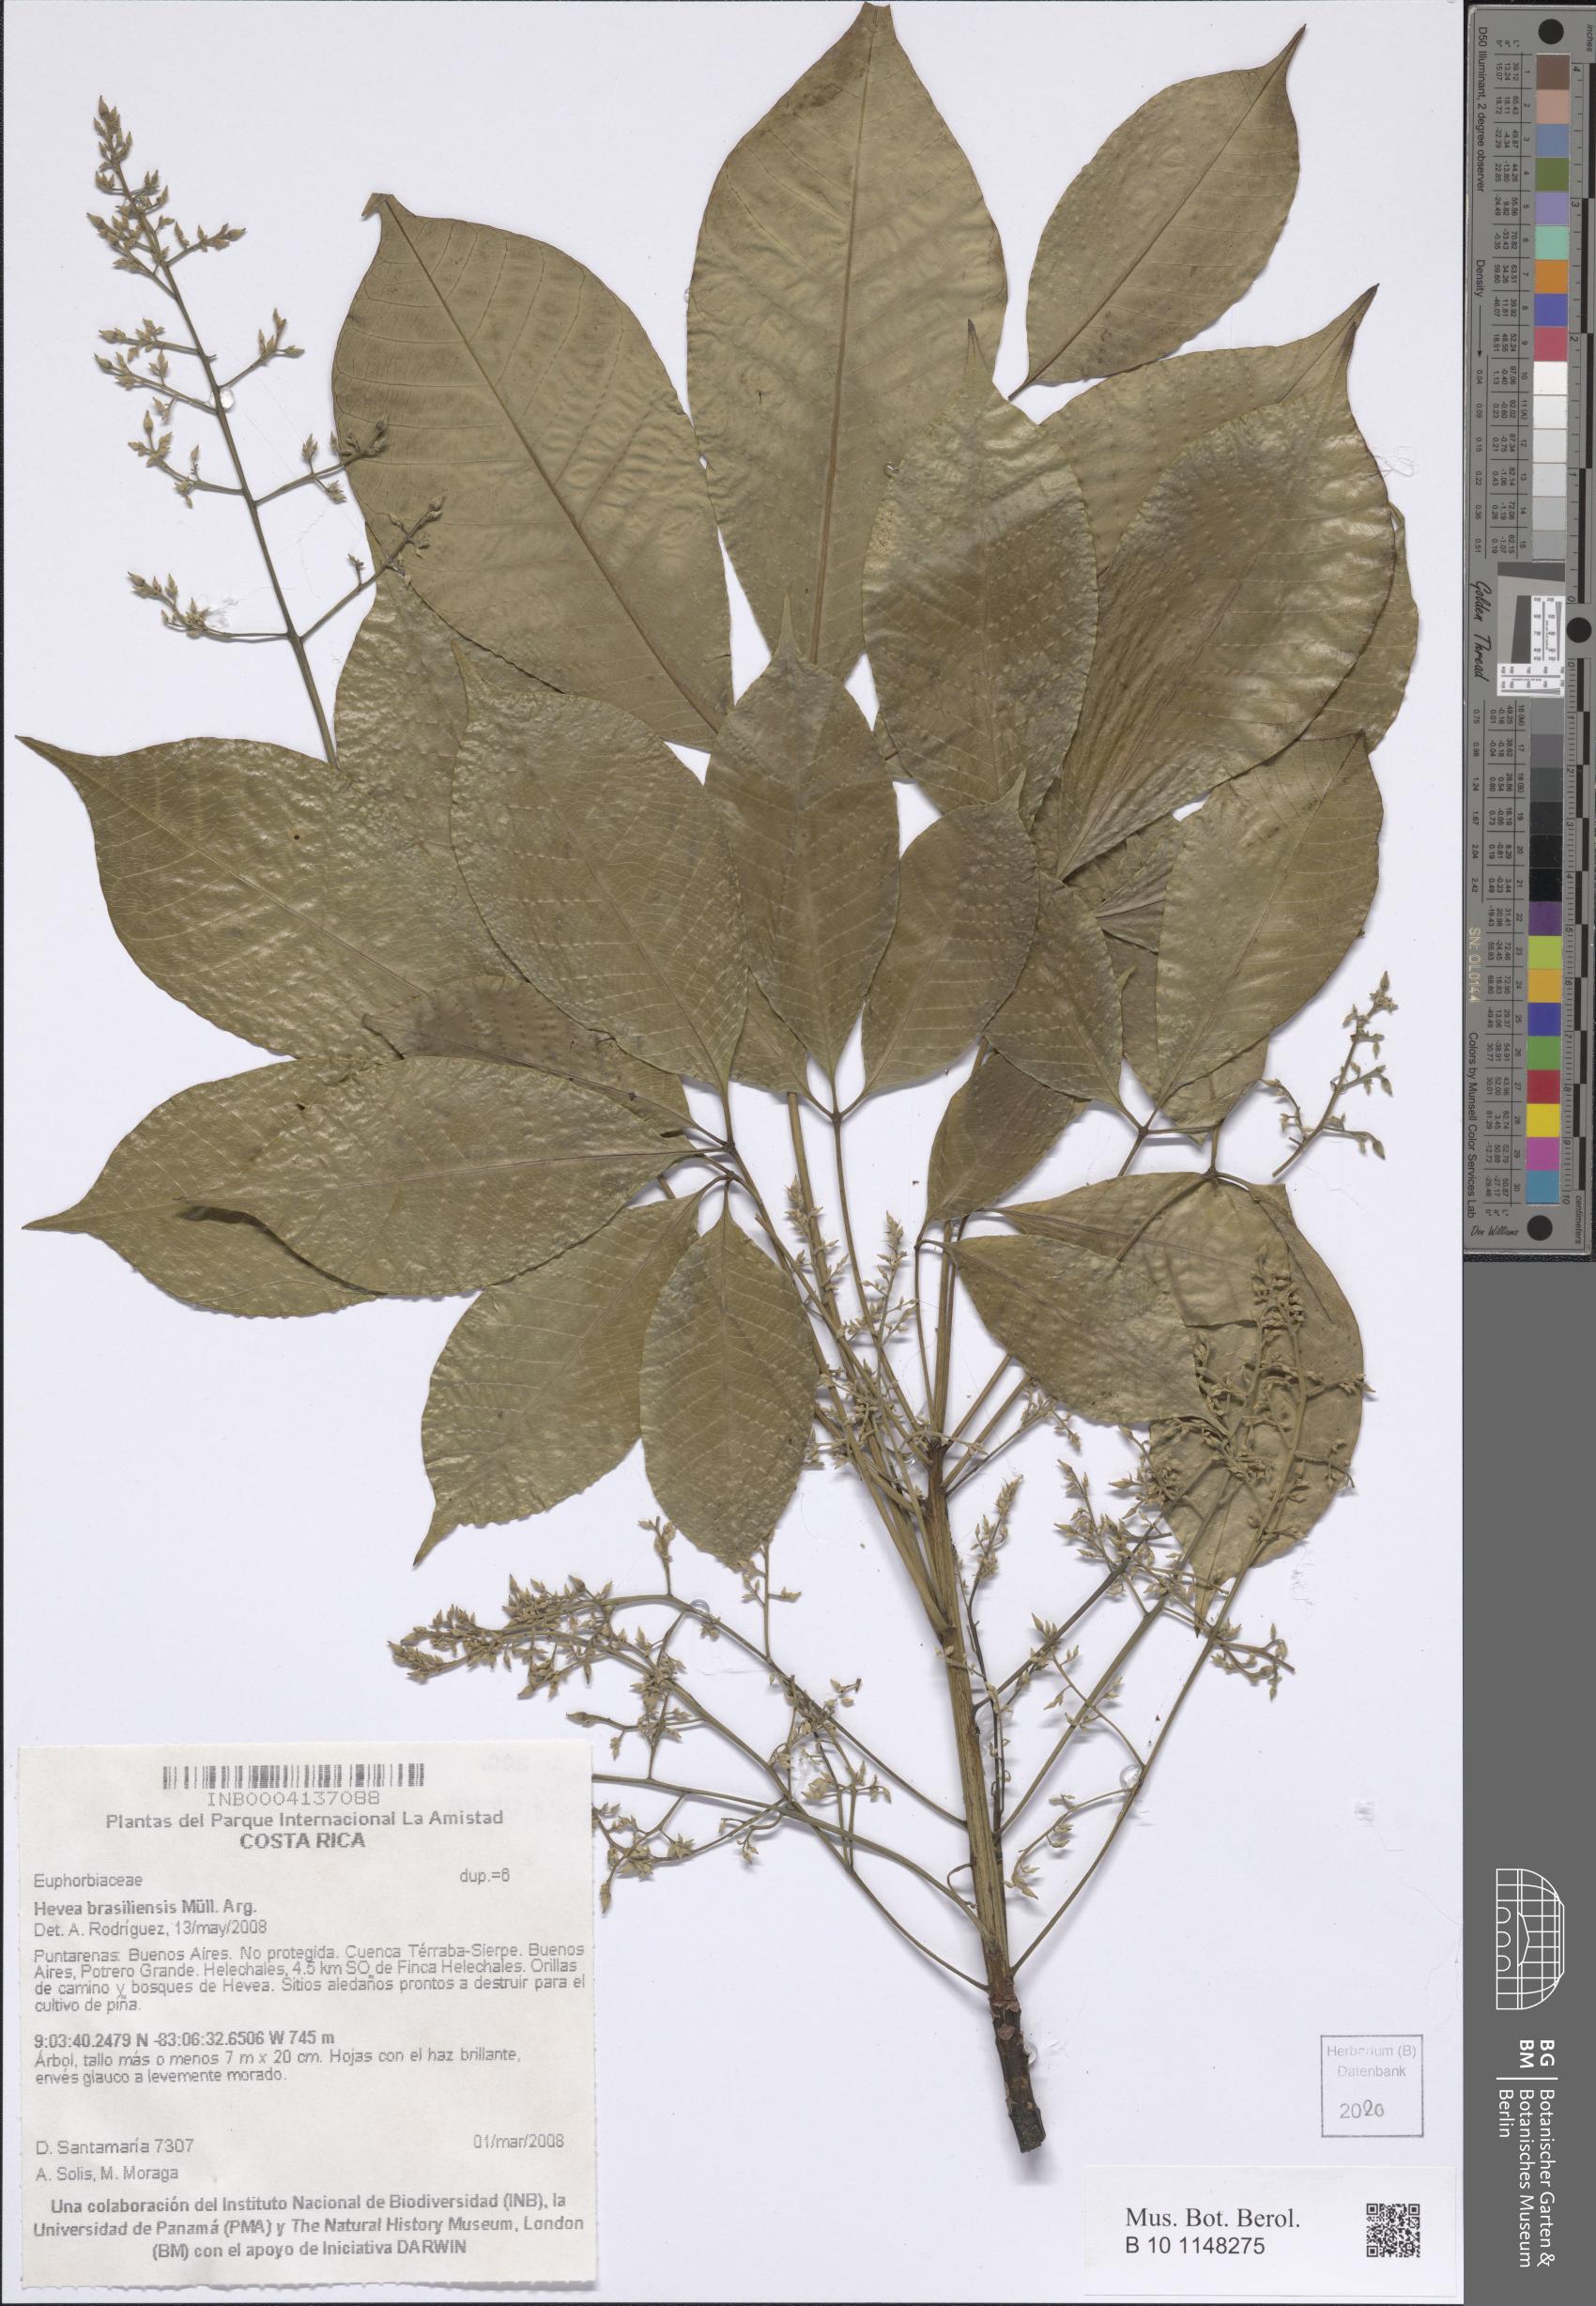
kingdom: Plantae
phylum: Tracheophyta
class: Magnoliopsida
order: Malpighiales
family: Euphorbiaceae
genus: Hevea
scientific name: Hevea brasiliensis
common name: Natural rubber
